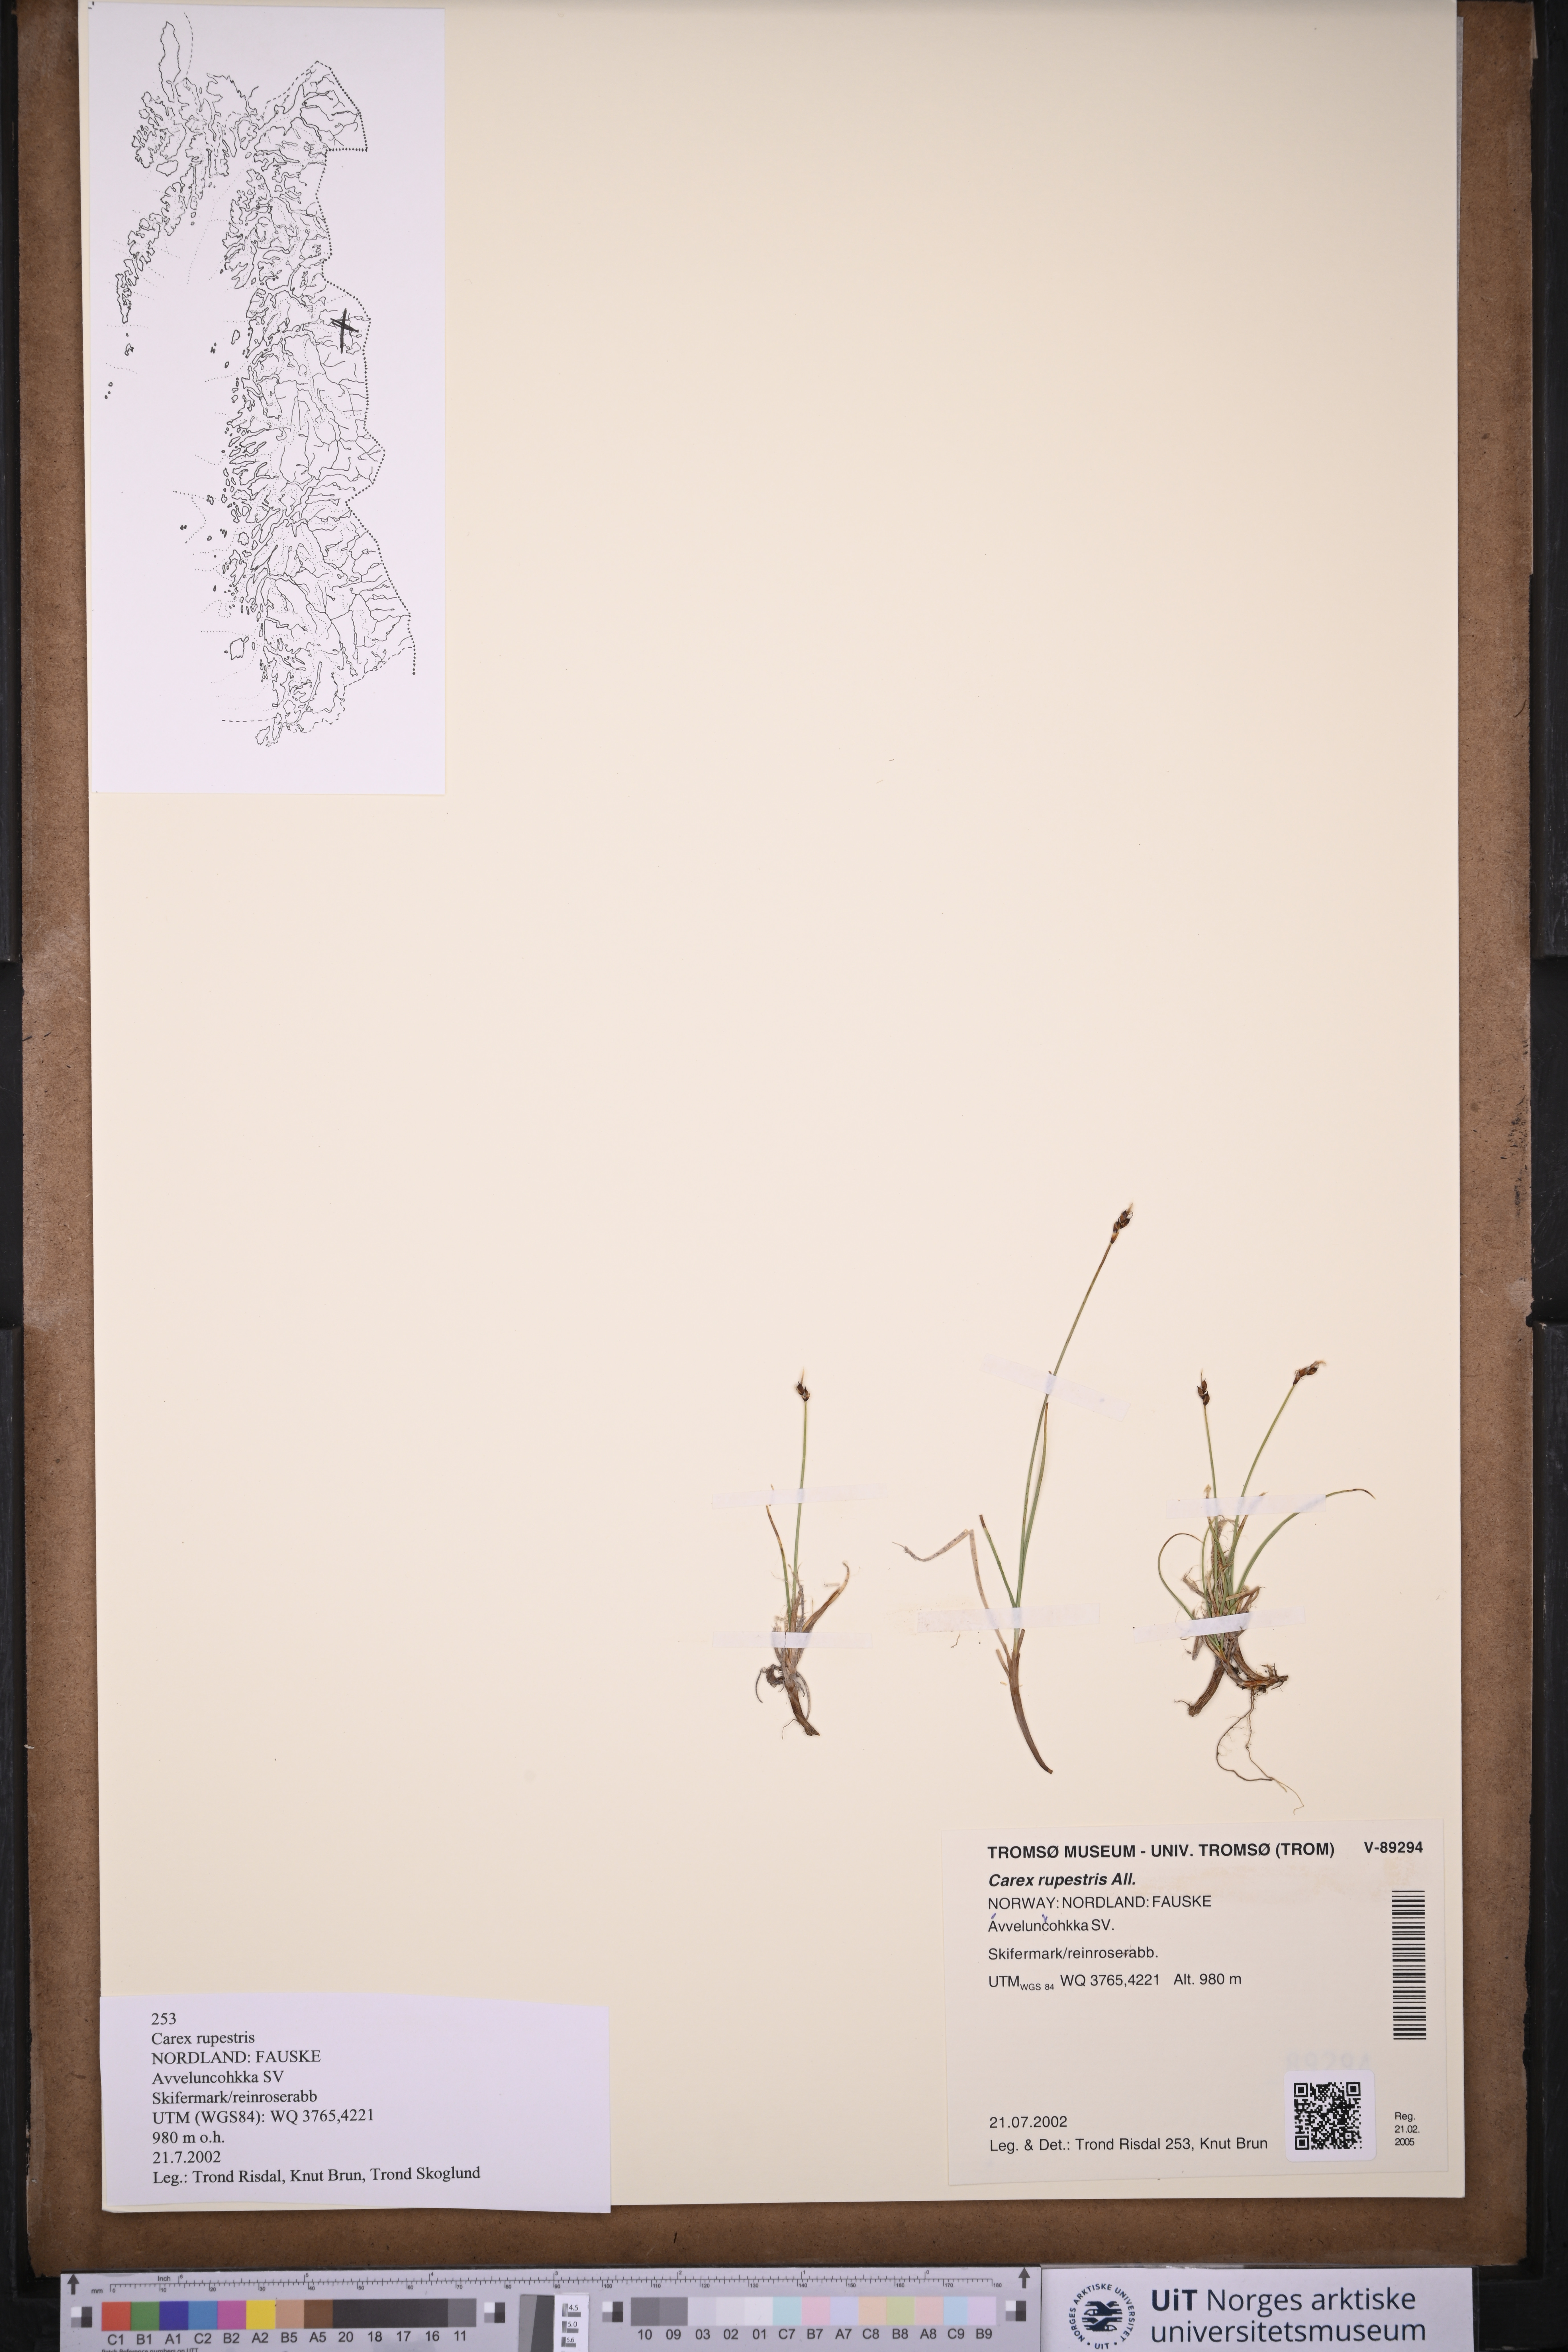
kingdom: Plantae
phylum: Tracheophyta
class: Liliopsida
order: Poales
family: Cyperaceae
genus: Carex
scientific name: Carex rupestris
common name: Rock sedge
